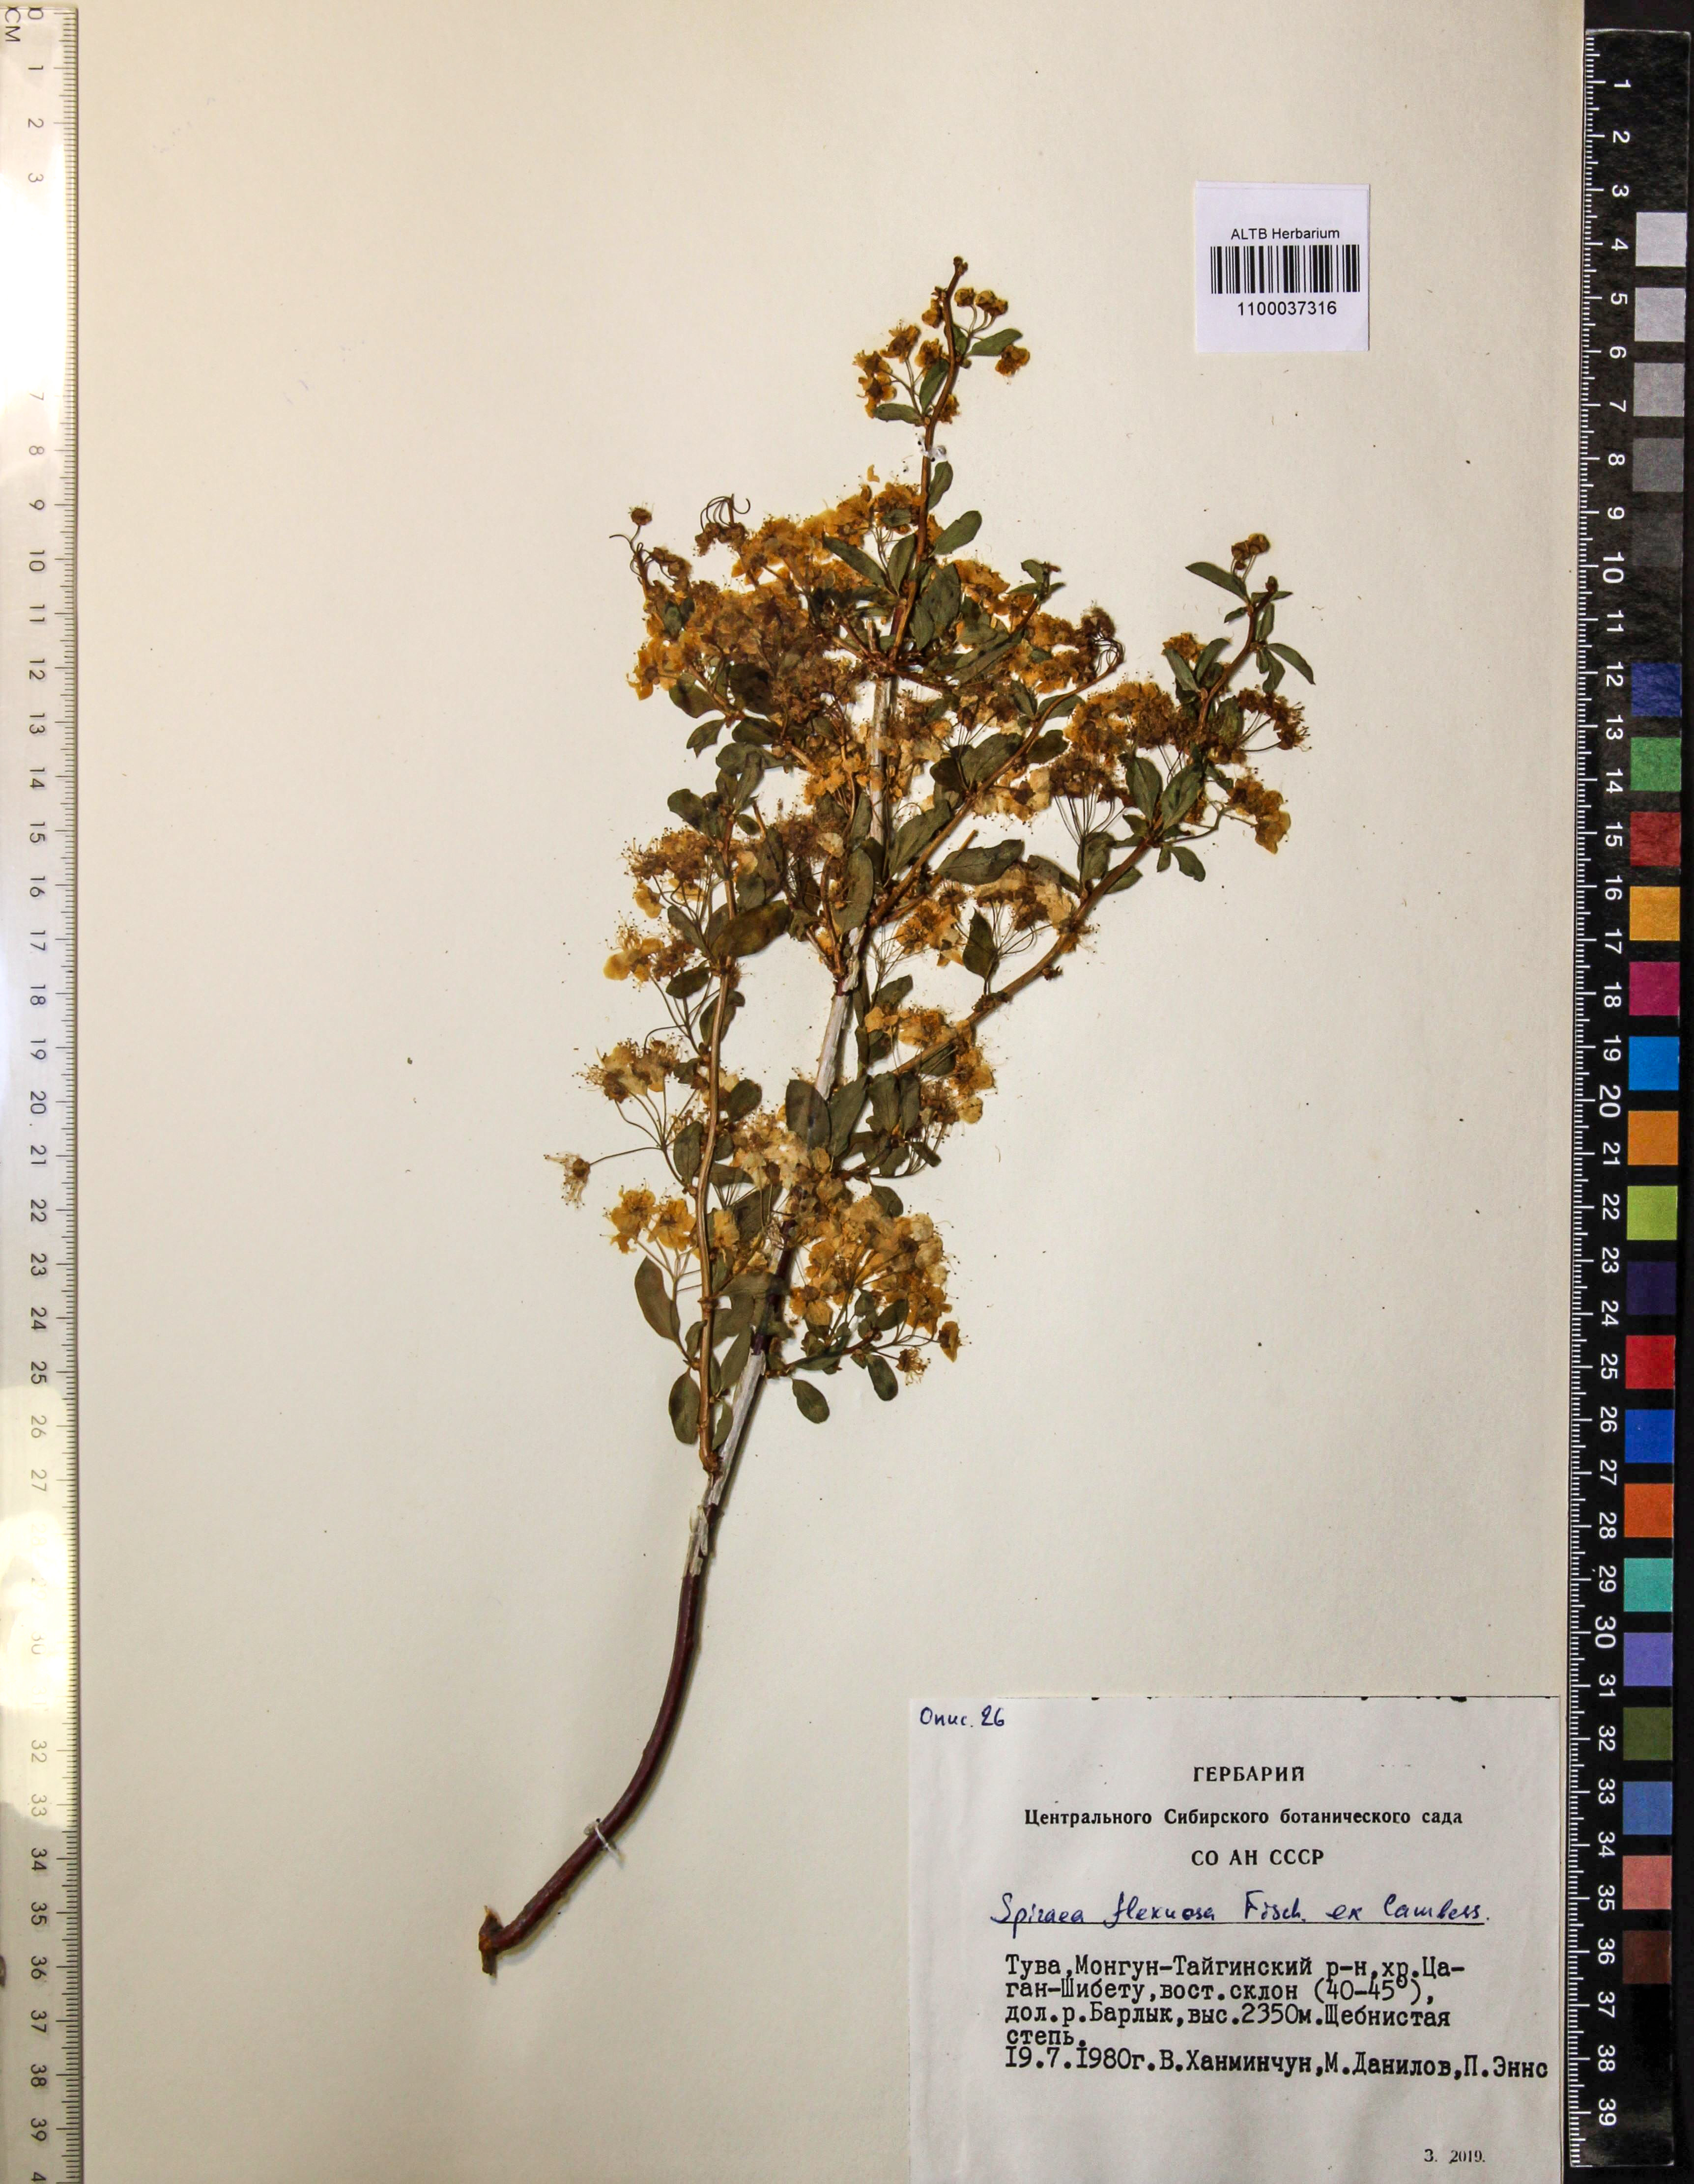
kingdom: Plantae
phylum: Tracheophyta
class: Magnoliopsida
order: Rosales
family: Rosaceae
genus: Spiraea
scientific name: Spiraea flexuosa
